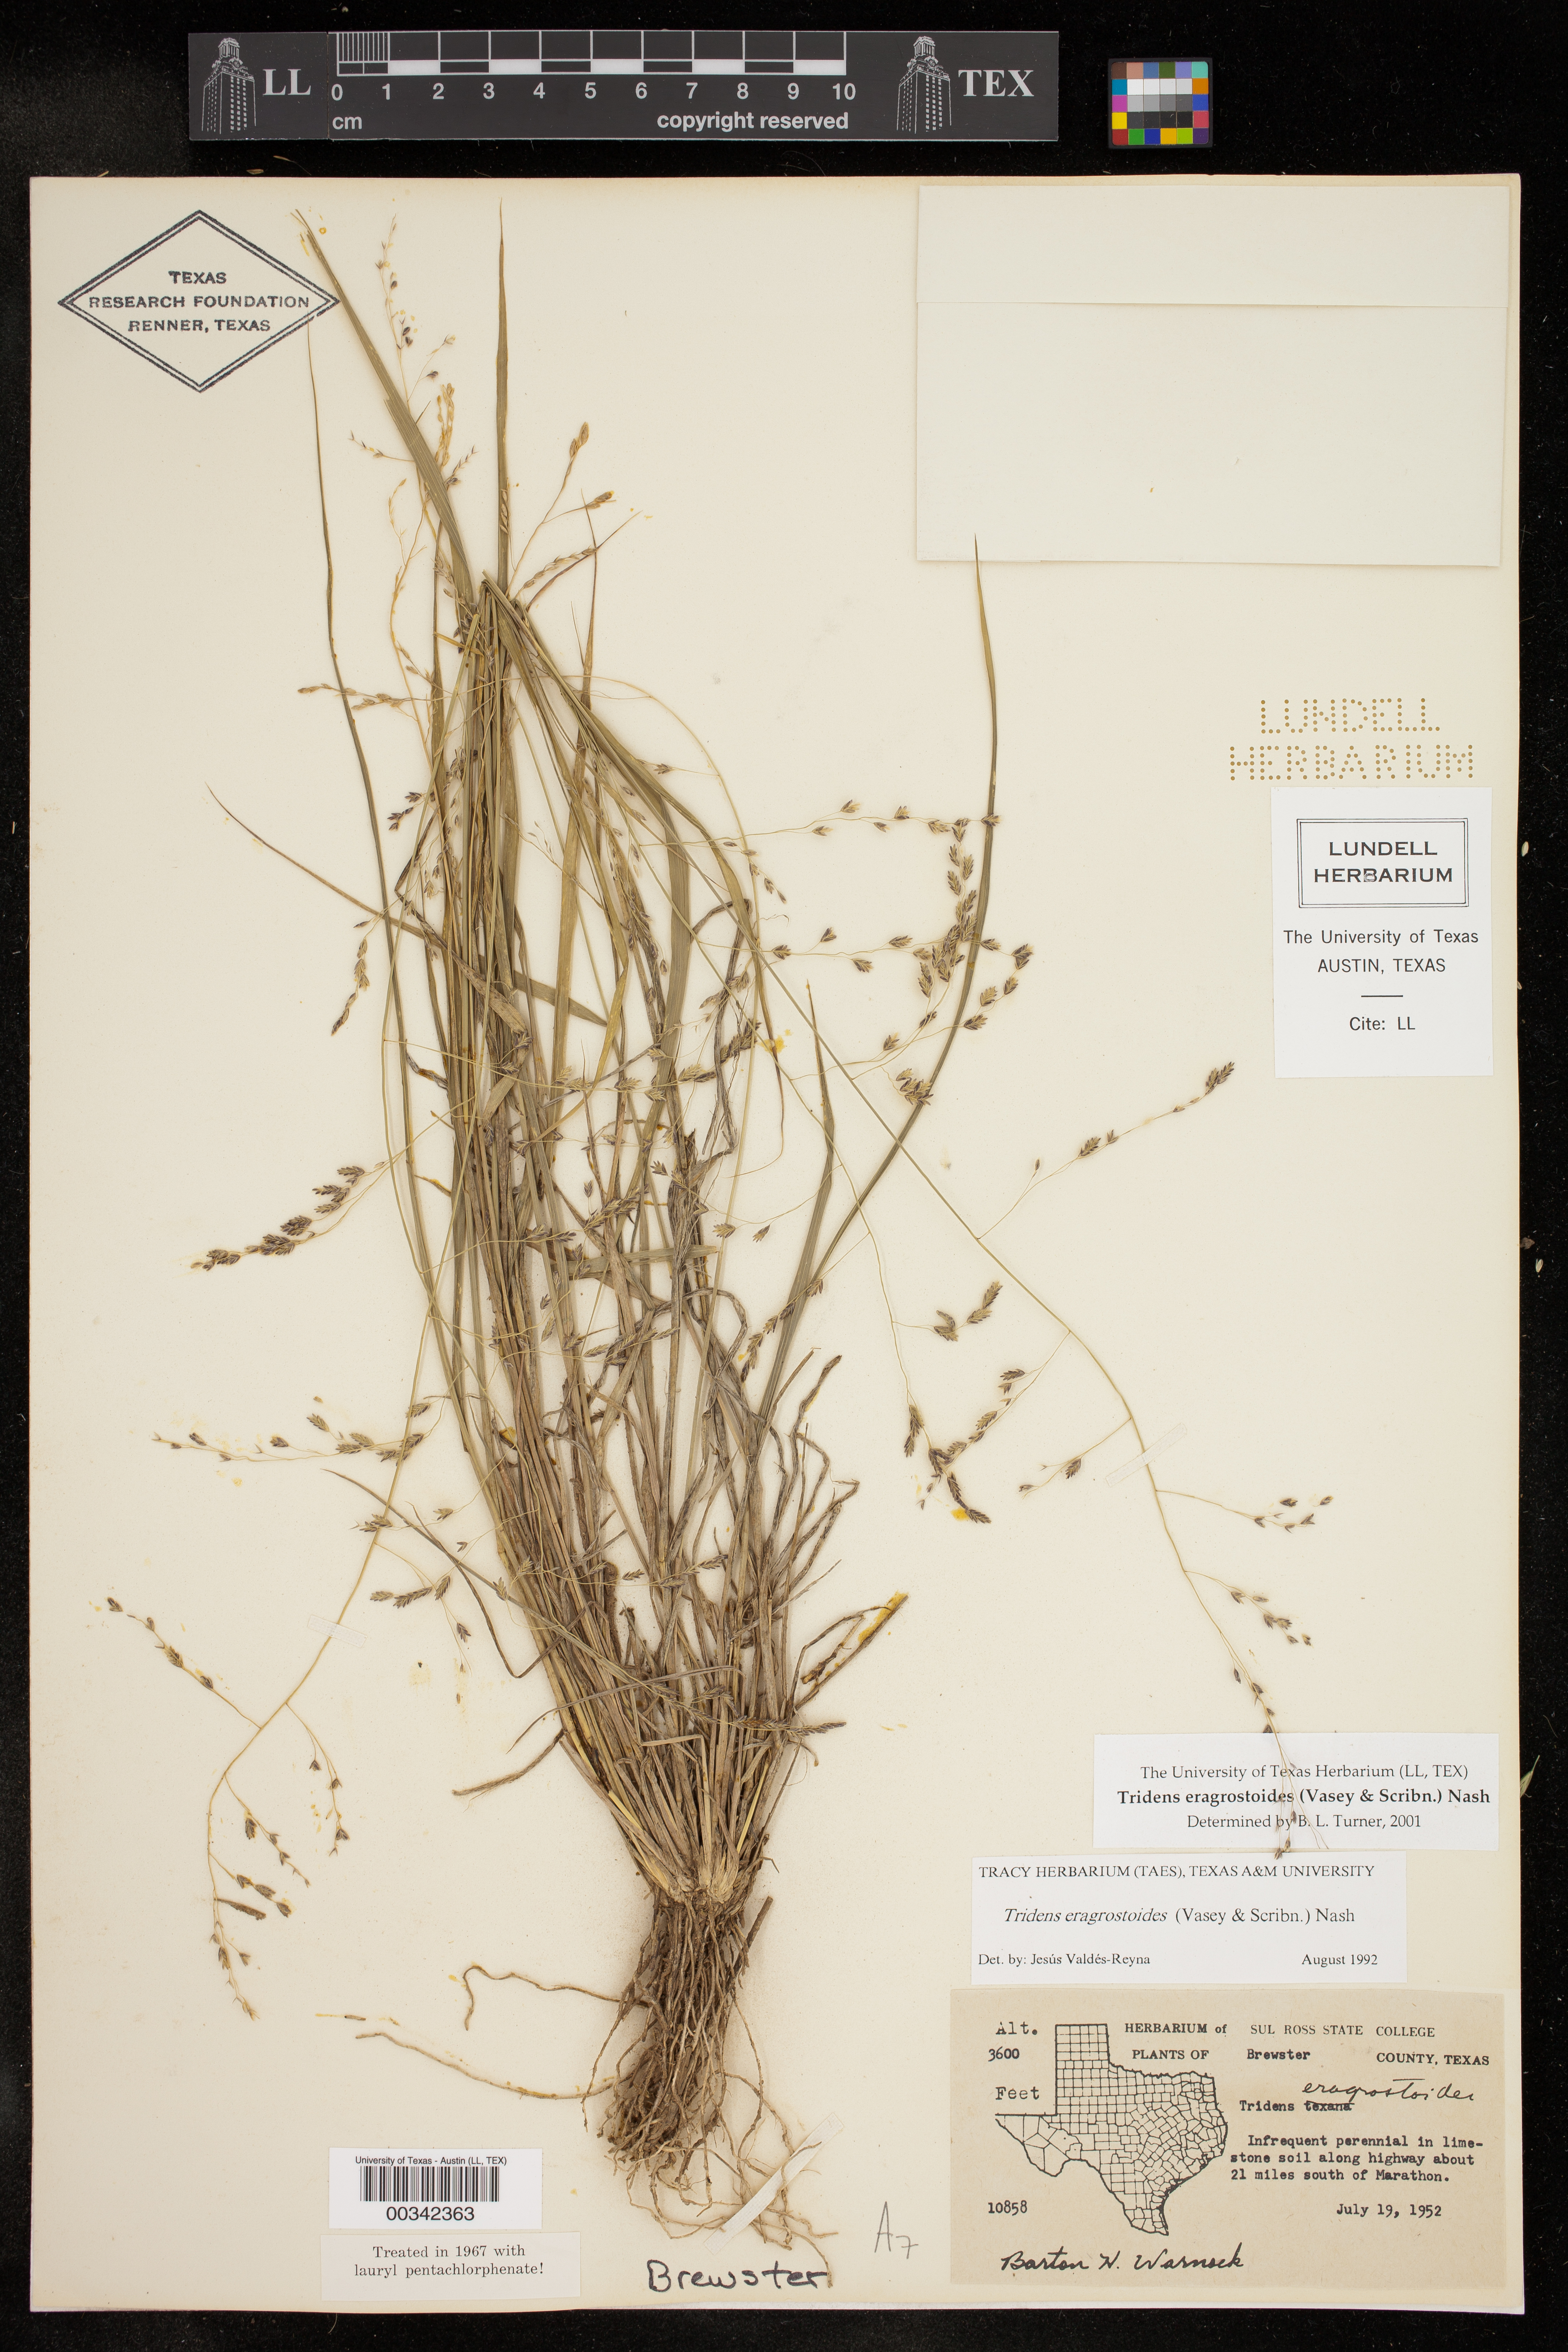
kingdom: Plantae
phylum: Tracheophyta
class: Liliopsida
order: Poales
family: Poaceae
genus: Triplasiella
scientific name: Triplasiella eragrostoides
